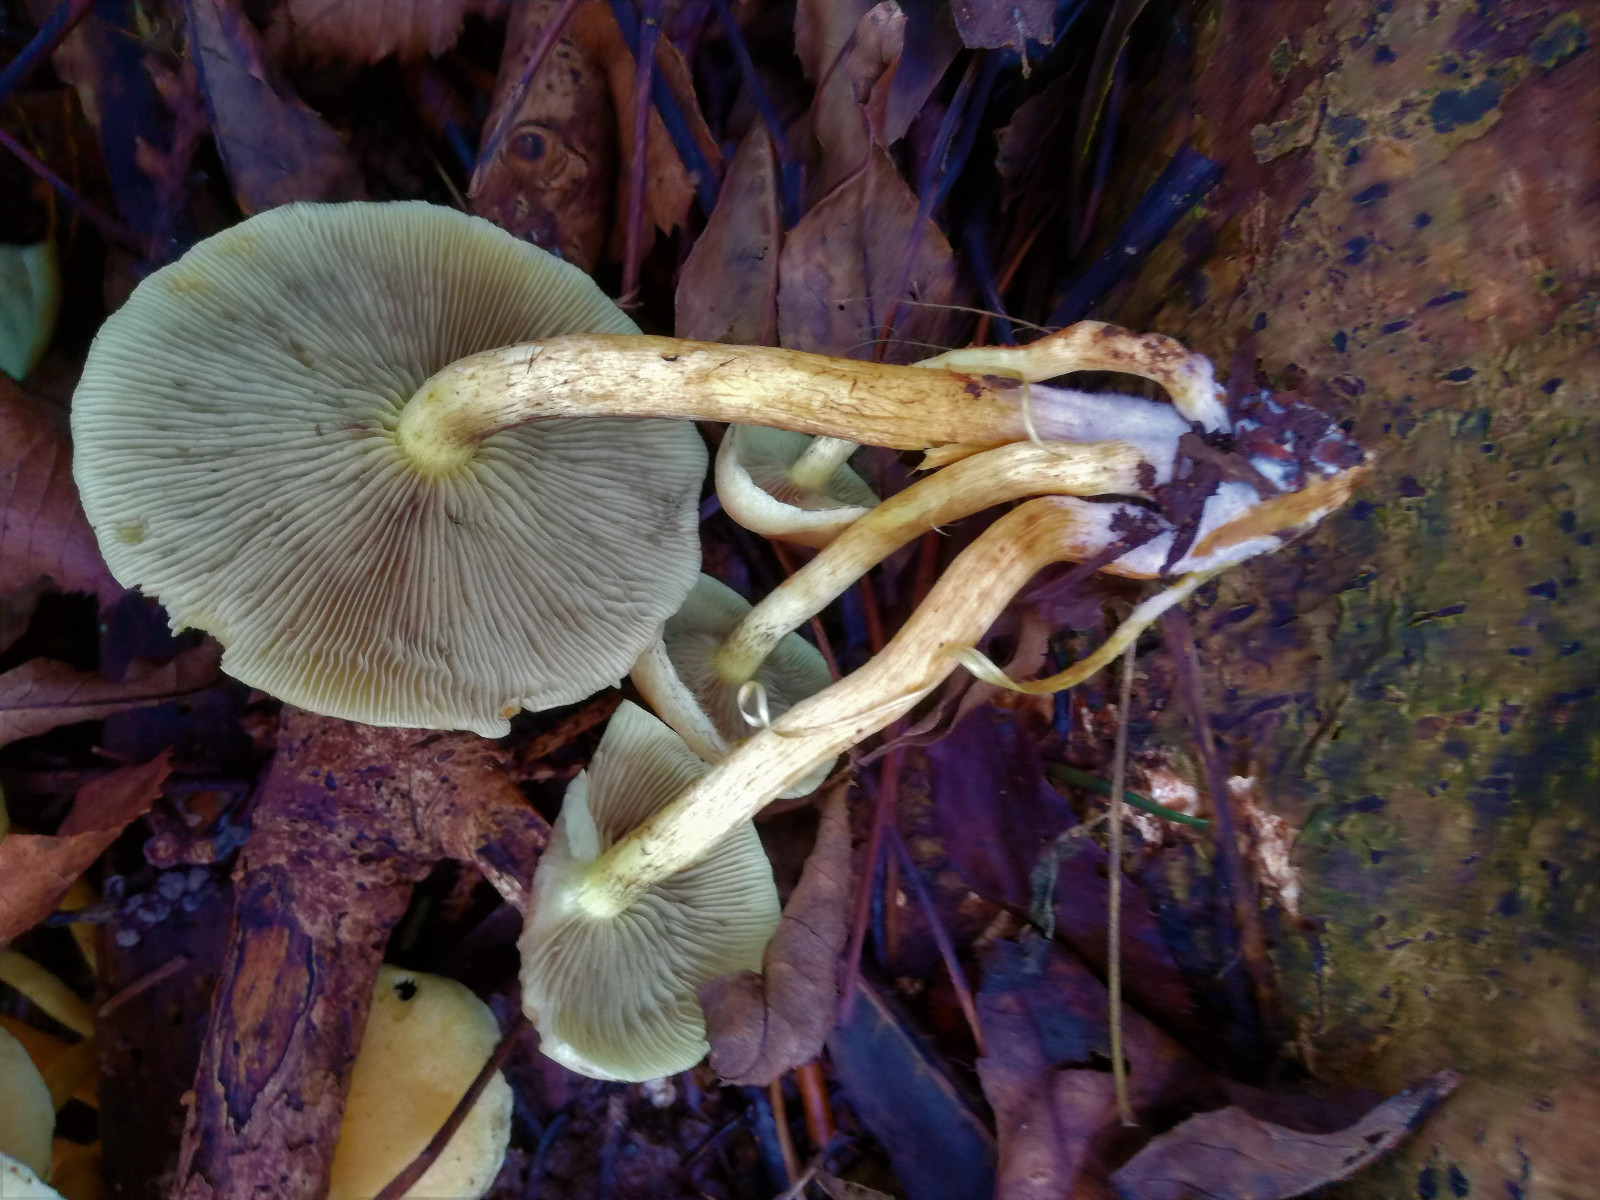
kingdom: Fungi
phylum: Basidiomycota
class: Agaricomycetes
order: Agaricales
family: Strophariaceae
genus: Hypholoma
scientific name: Hypholoma fasciculare
